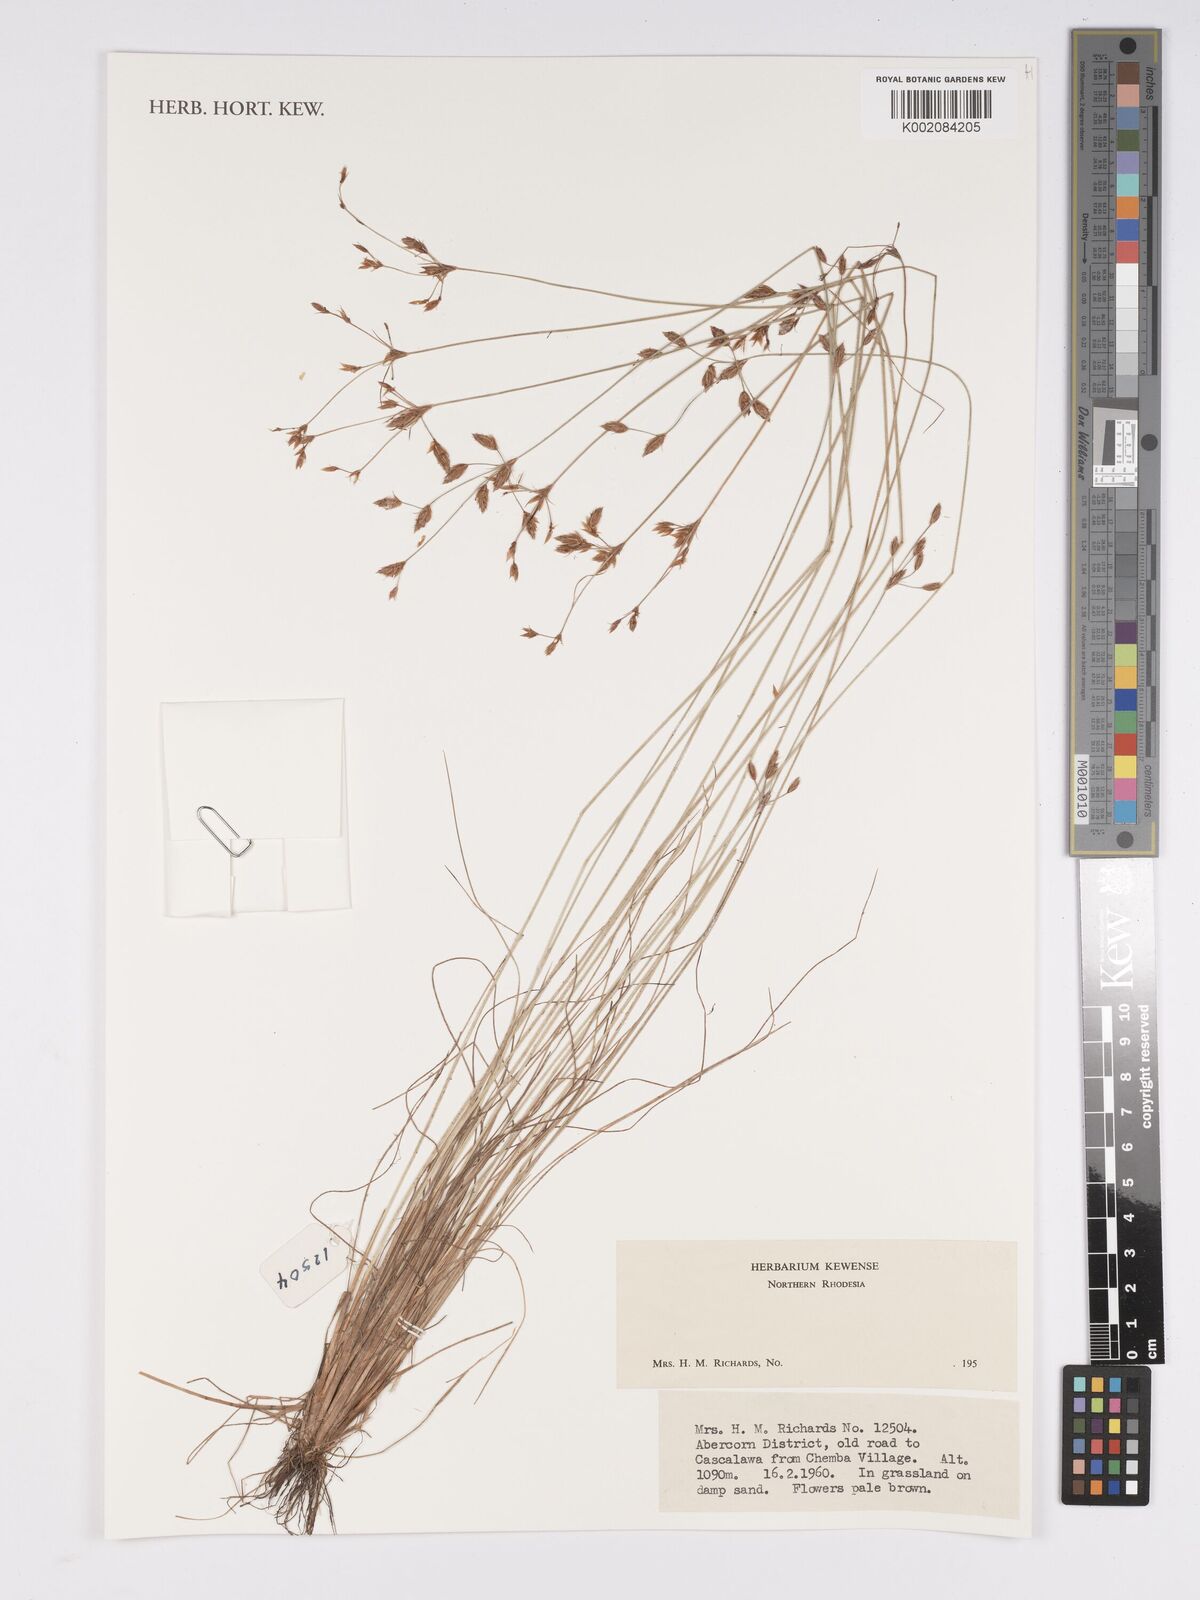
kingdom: Plantae
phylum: Tracheophyta
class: Liliopsida
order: Poales
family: Cyperaceae
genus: Bulbostylis
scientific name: Bulbostylis
